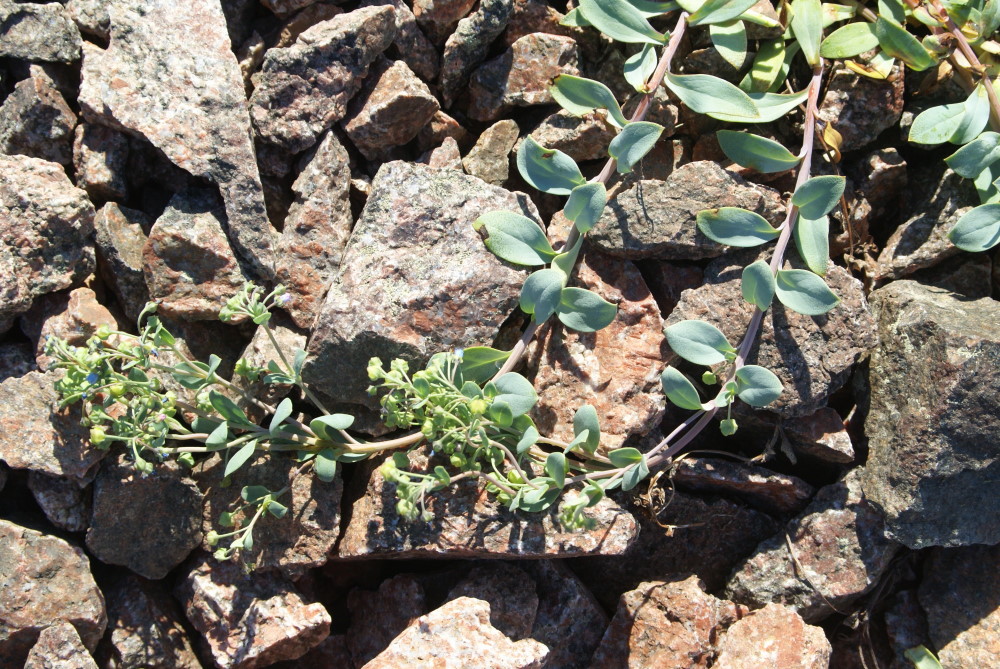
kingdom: Plantae
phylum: Tracheophyta
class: Magnoliopsida
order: Boraginales
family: Boraginaceae
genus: Mertensia
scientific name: Mertensia maritima
